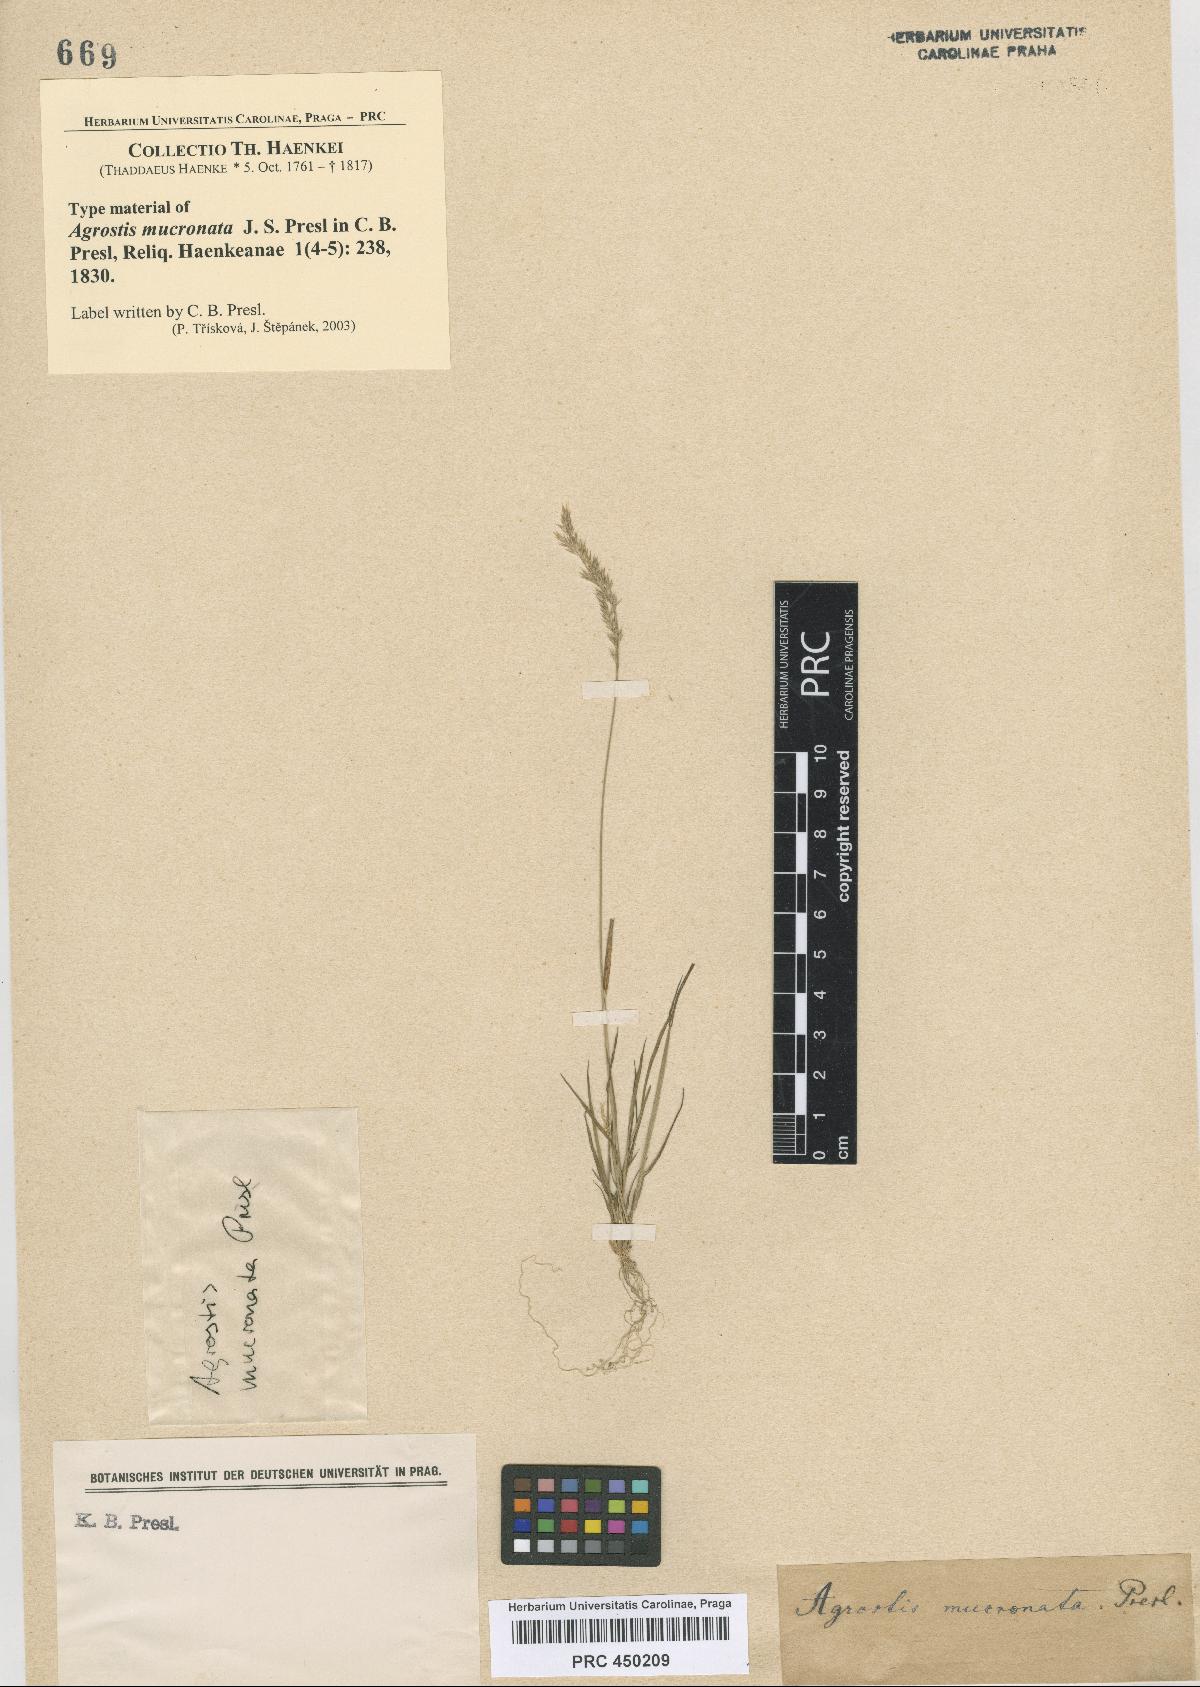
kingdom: Plantae
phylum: Tracheophyta
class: Liliopsida
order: Poales
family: Poaceae
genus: Polypogon
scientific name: Polypogon exasperatus
